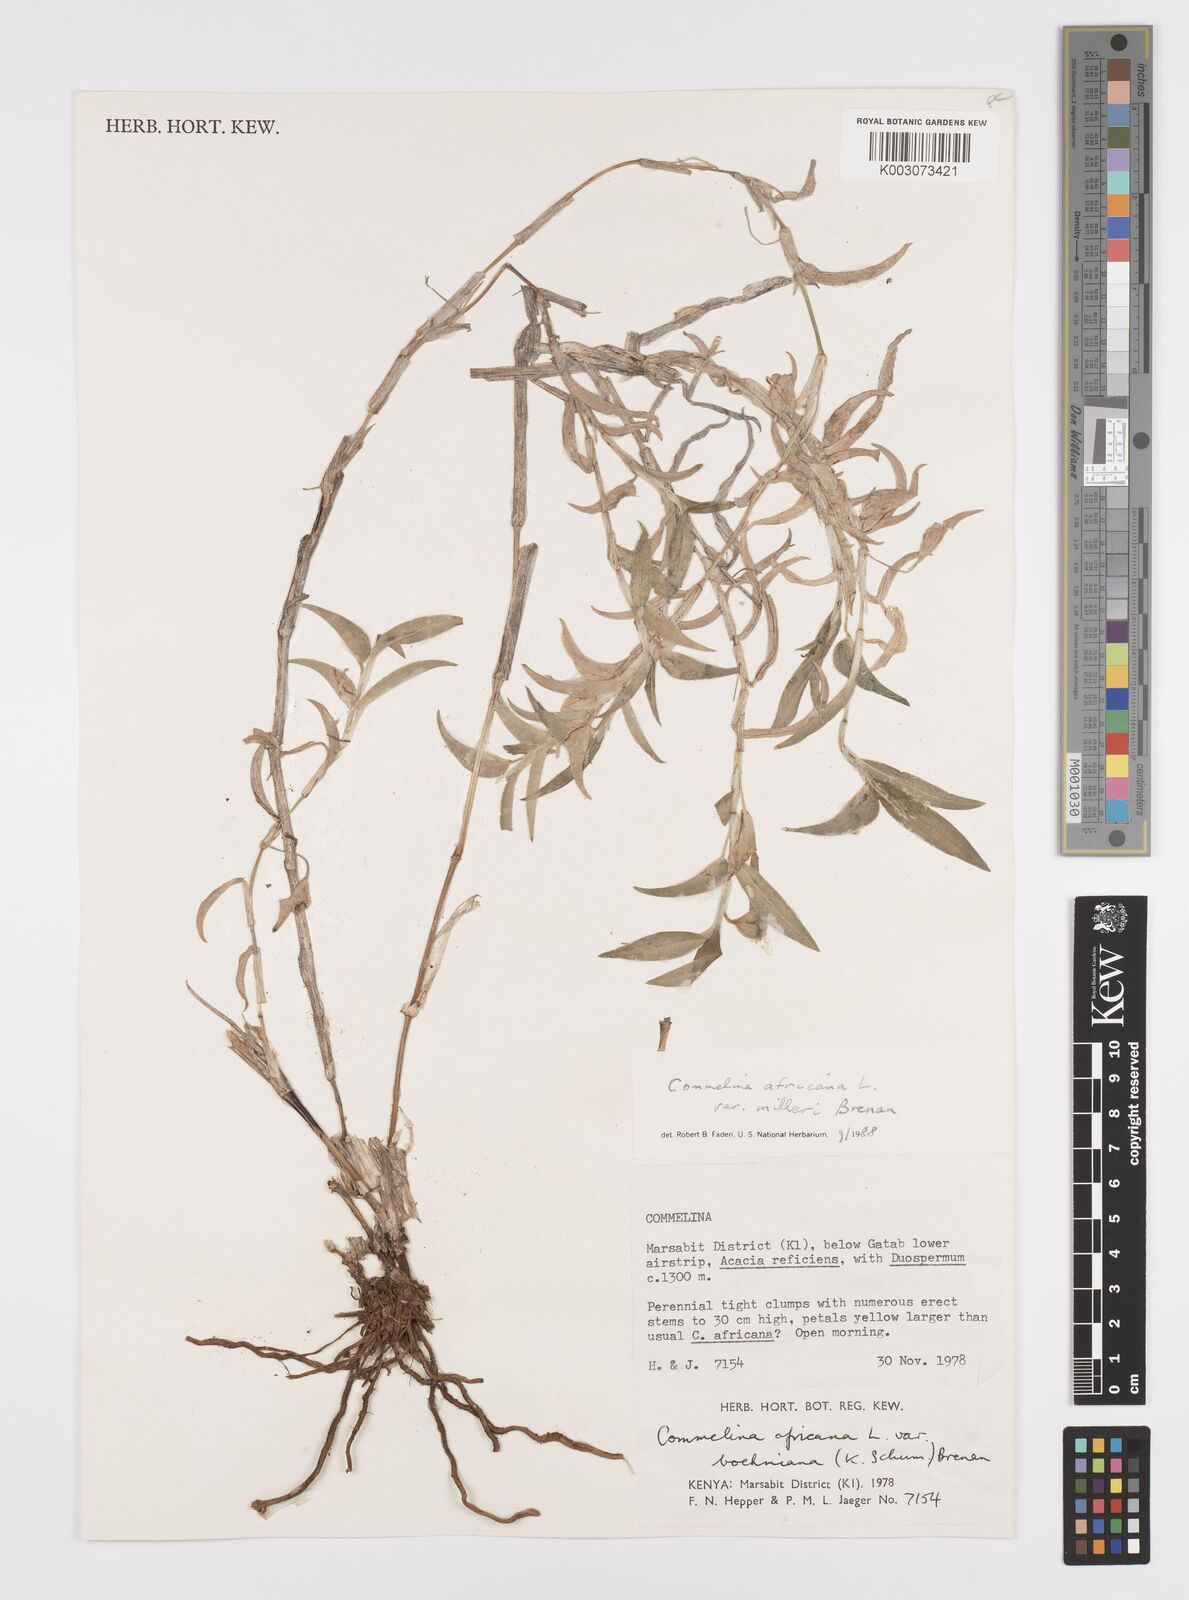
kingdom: Plantae
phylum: Tracheophyta
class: Liliopsida
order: Commelinales
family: Commelinaceae
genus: Commelina
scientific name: Commelina africana
